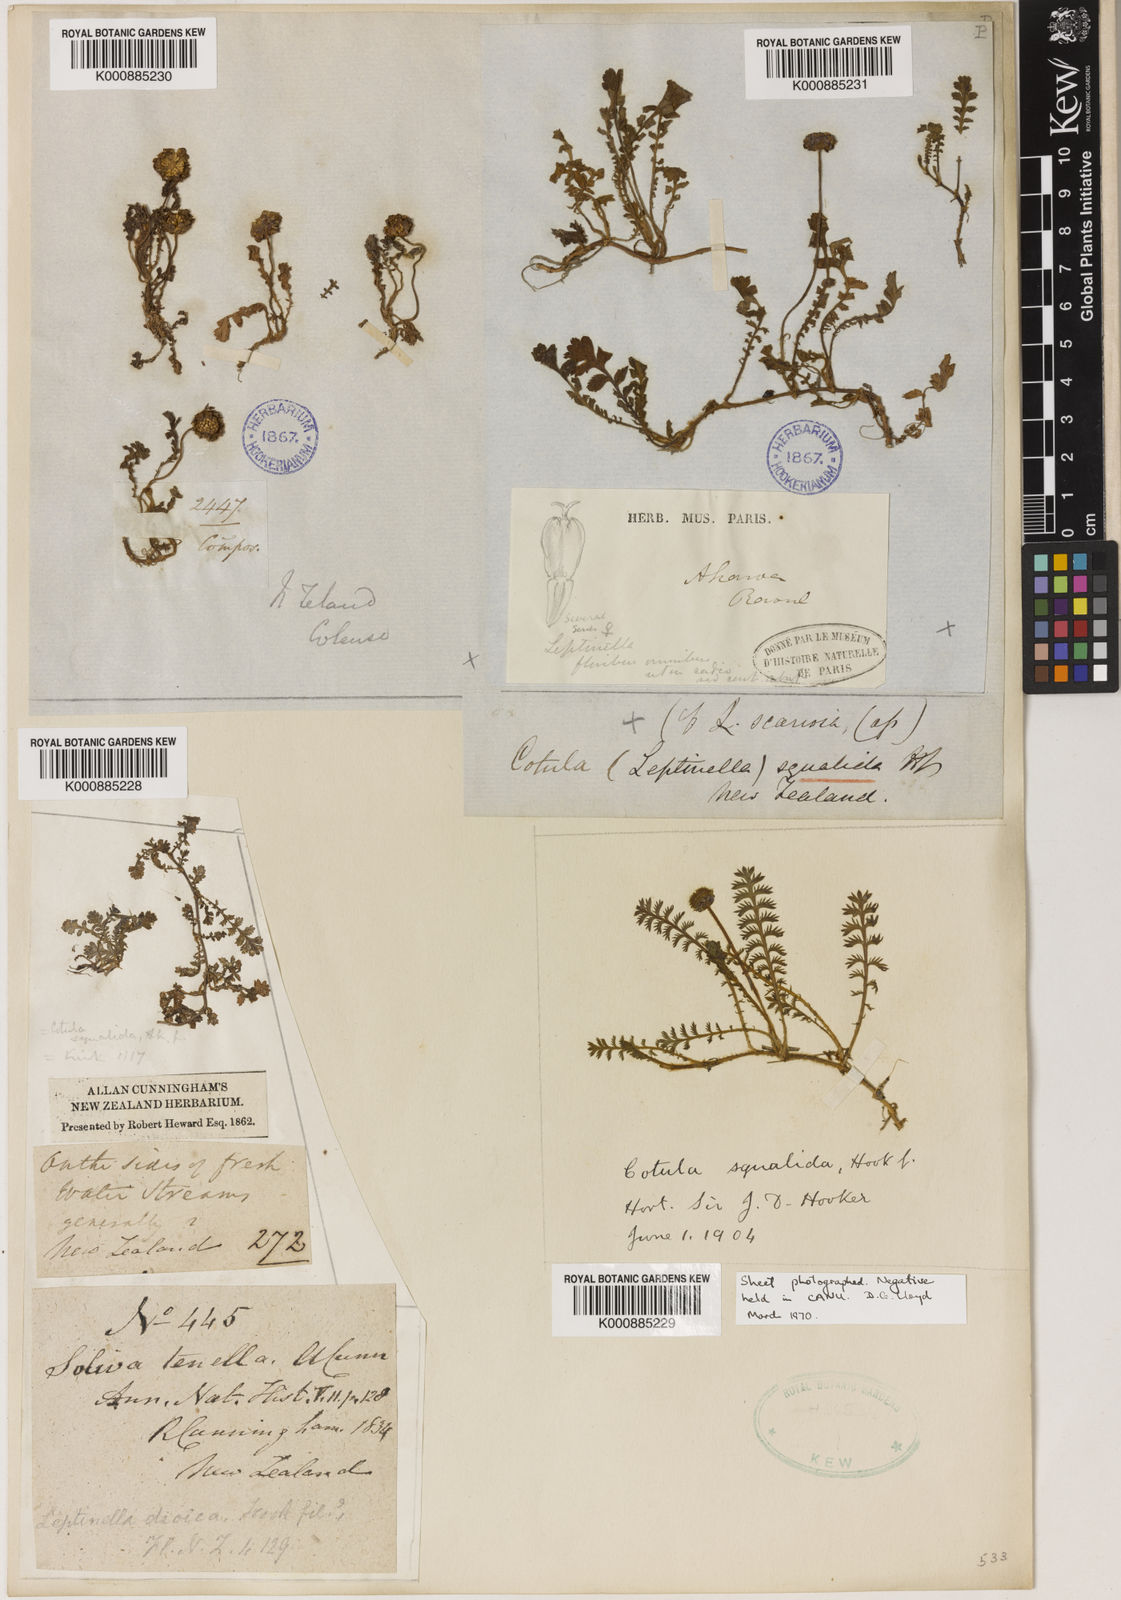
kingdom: Plantae
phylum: Tracheophyta
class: Magnoliopsida
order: Asterales
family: Asteraceae
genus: Leptinella
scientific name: Leptinella
